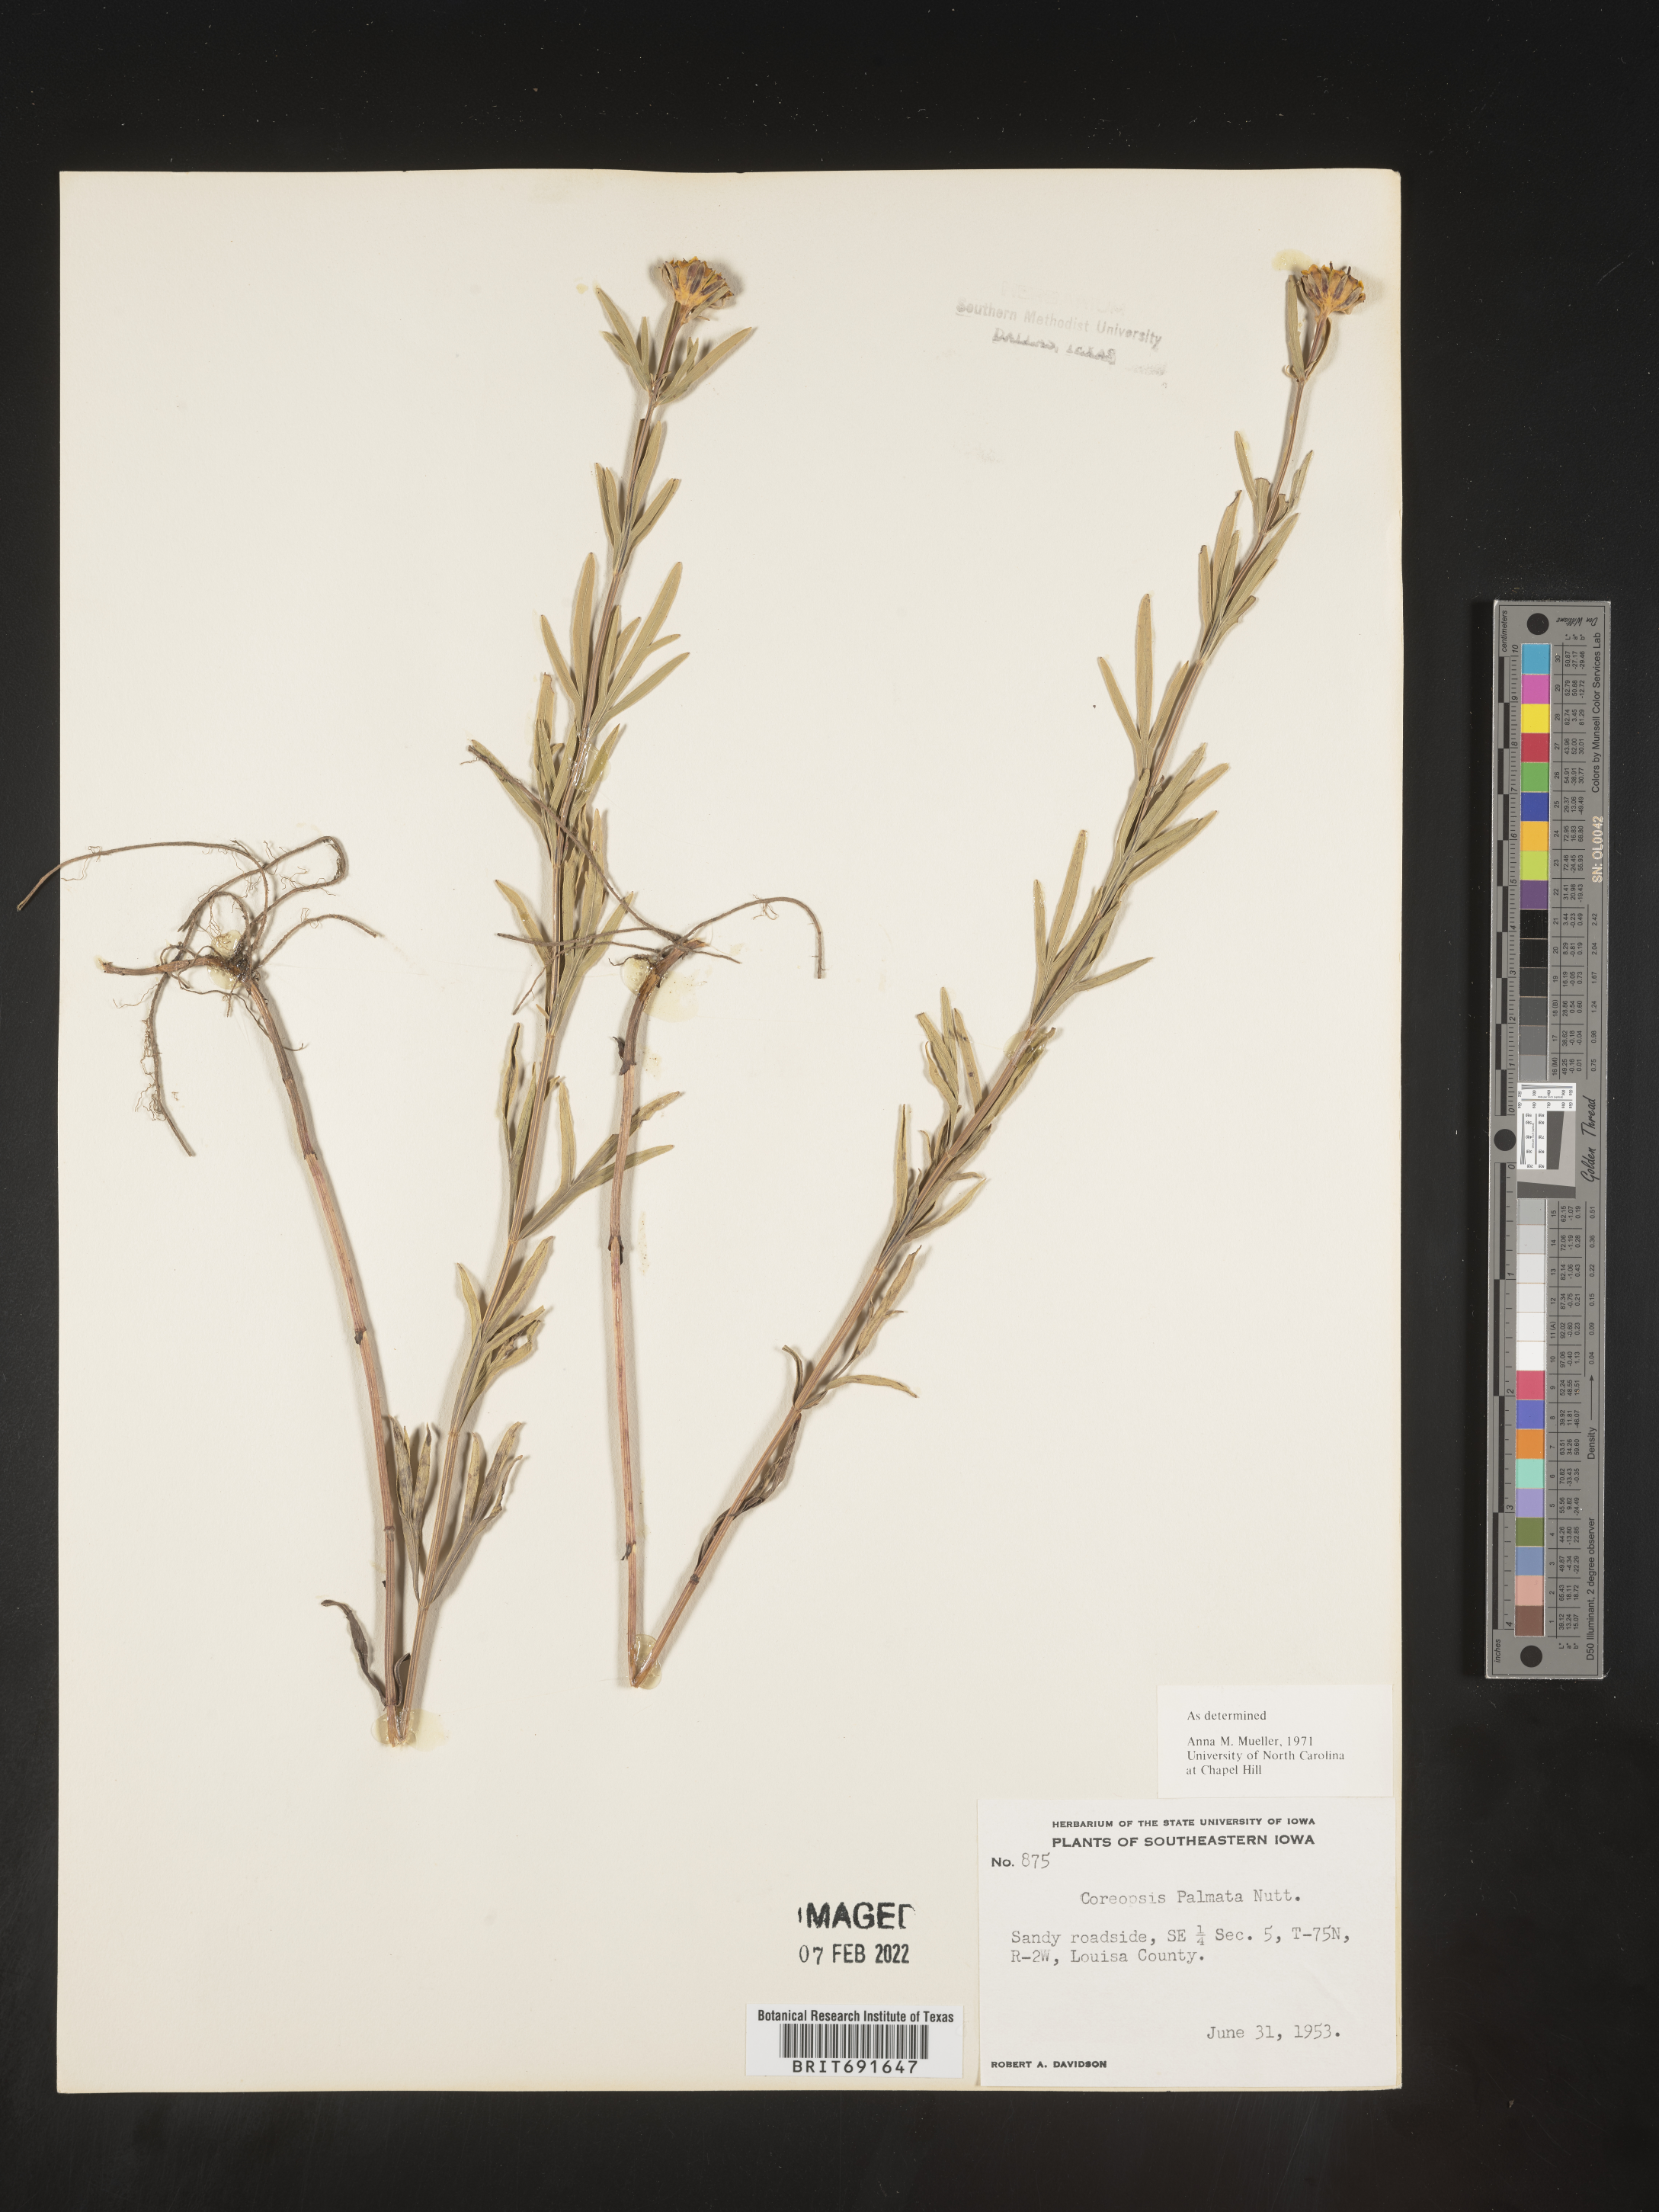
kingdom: Plantae
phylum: Tracheophyta
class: Magnoliopsida
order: Asterales
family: Asteraceae
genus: Coreopsis
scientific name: Coreopsis palmata
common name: Prairie coreopsis
